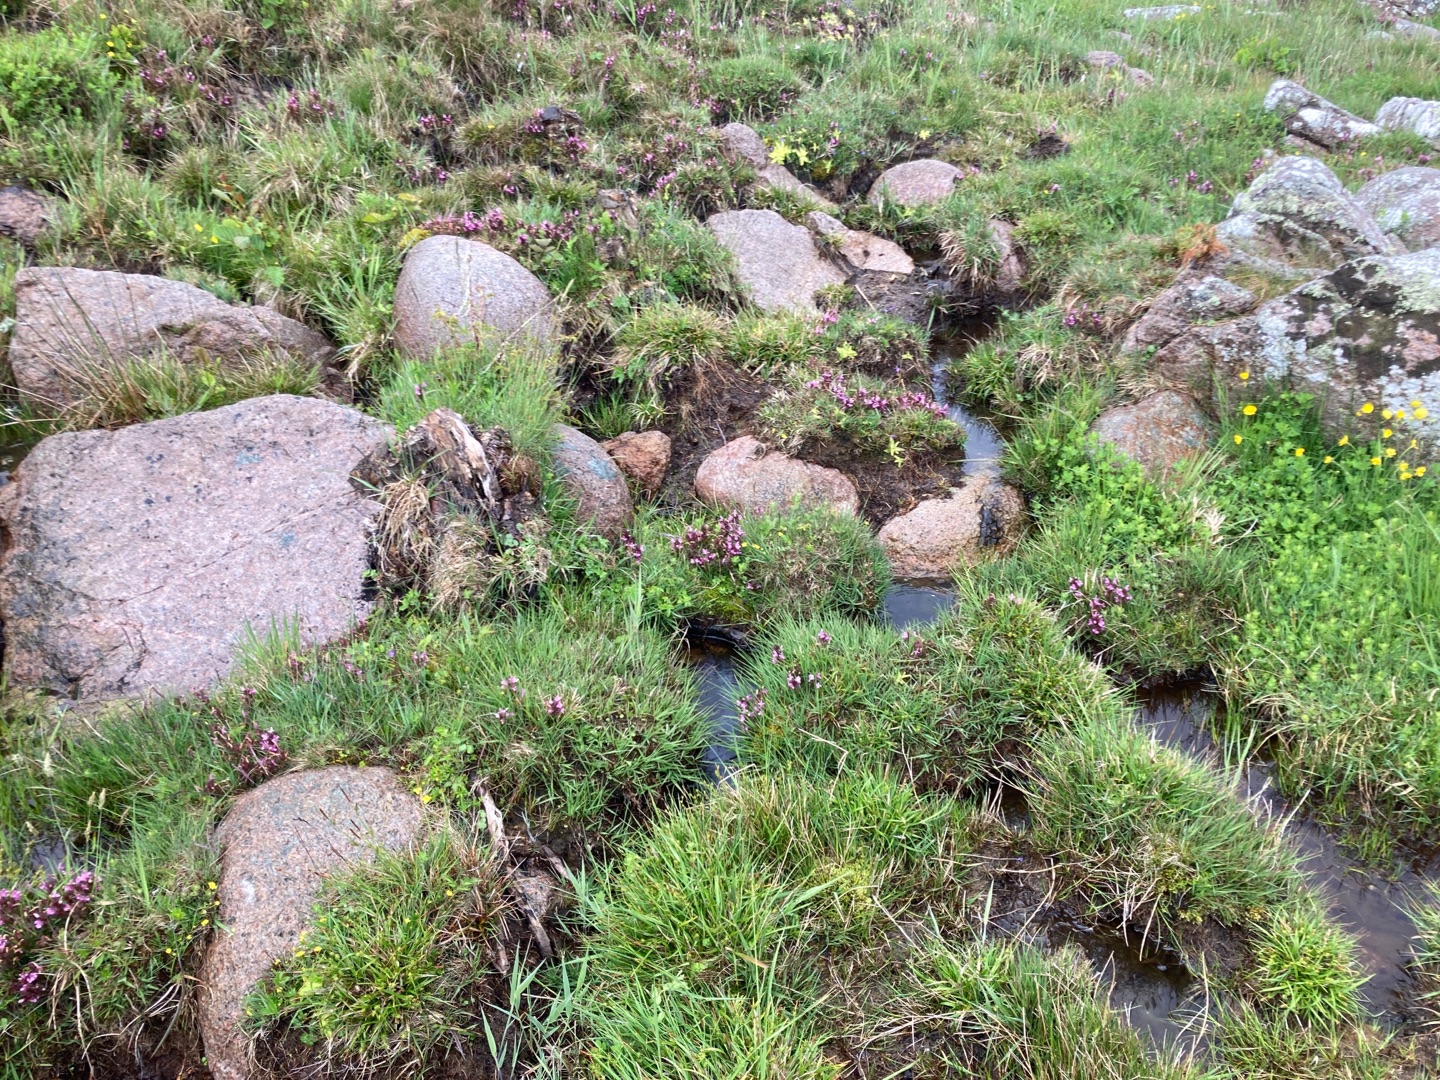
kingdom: Plantae
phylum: Tracheophyta
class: Magnoliopsida
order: Lamiales
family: Orobanchaceae
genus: Pedicularis
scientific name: Pedicularis sylvatica
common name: Mose-troldurt
